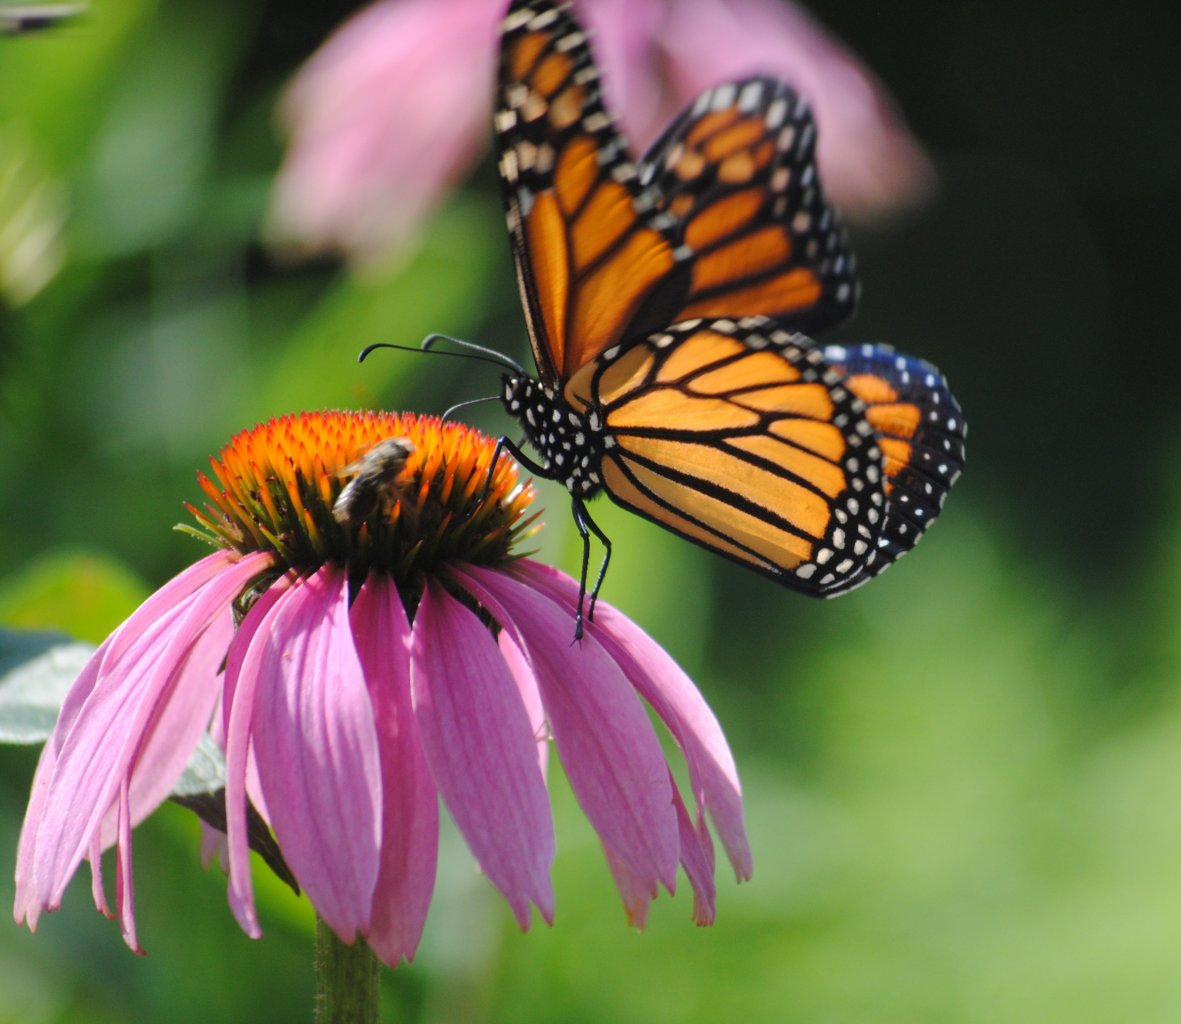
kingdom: Animalia
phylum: Arthropoda
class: Insecta
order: Lepidoptera
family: Nymphalidae
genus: Danaus
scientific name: Danaus plexippus
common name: Monarch
